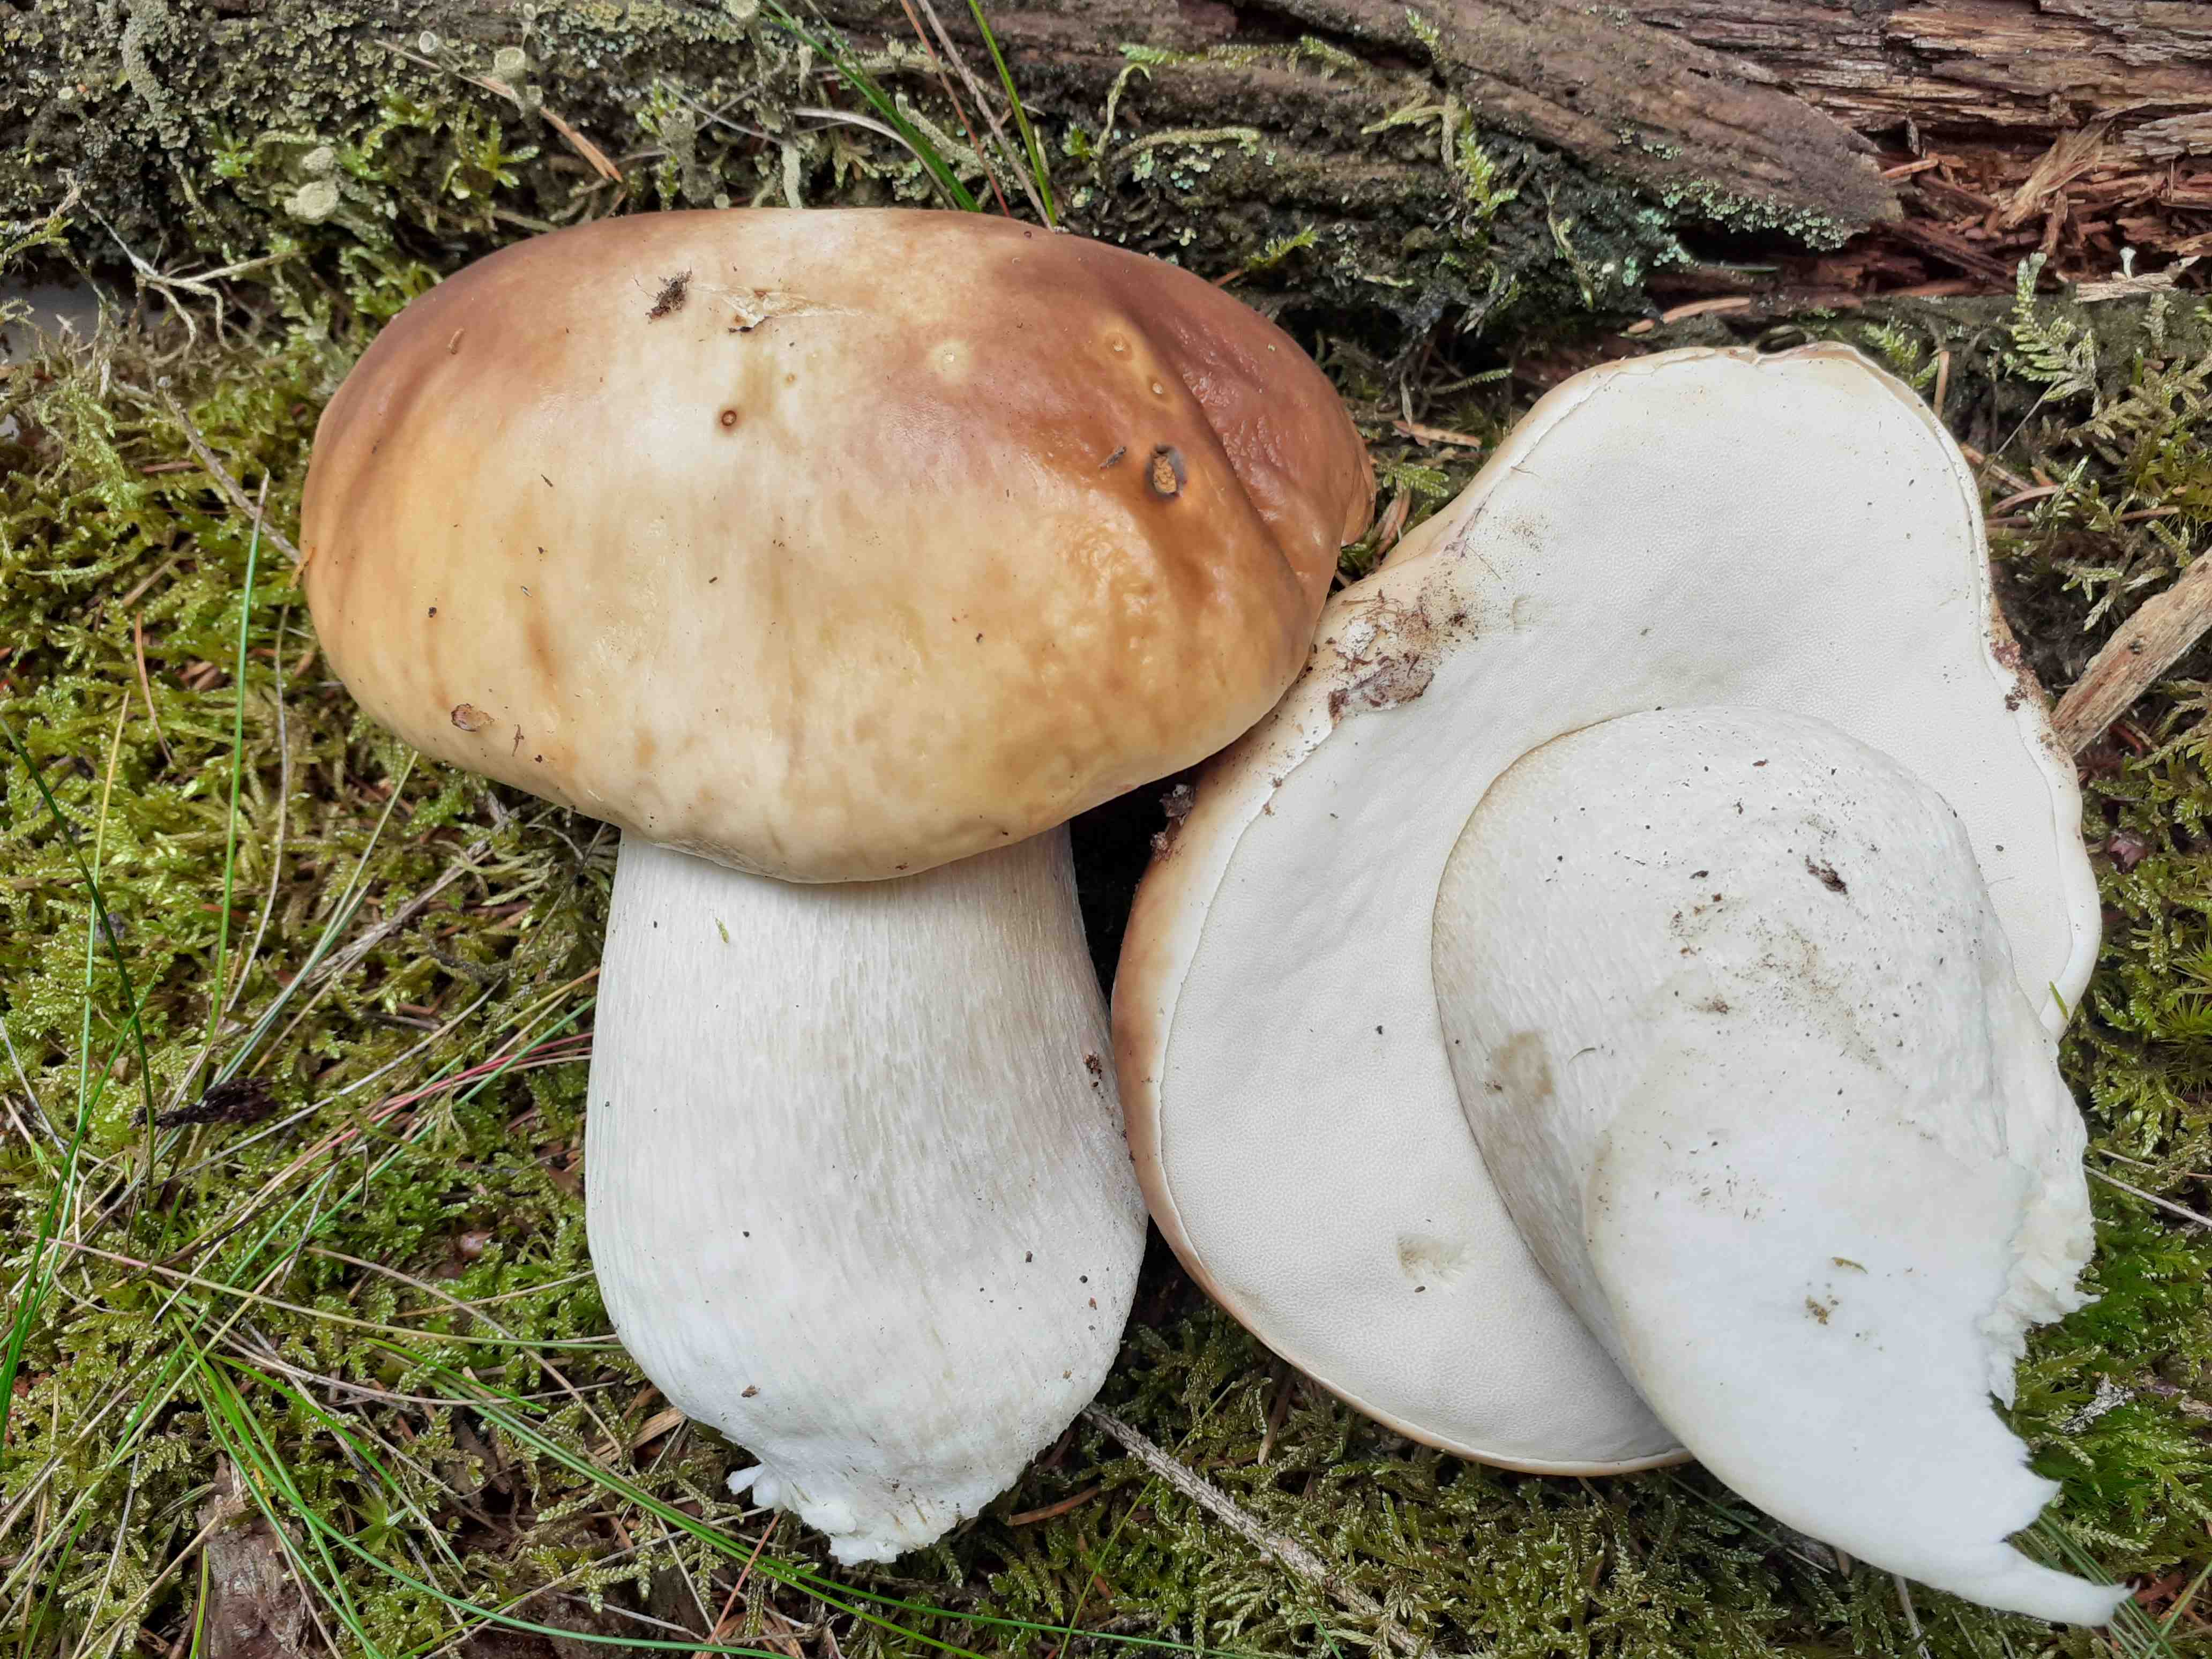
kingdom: Fungi
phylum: Basidiomycota
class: Agaricomycetes
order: Boletales
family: Boletaceae
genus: Boletus
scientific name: Boletus edulis
